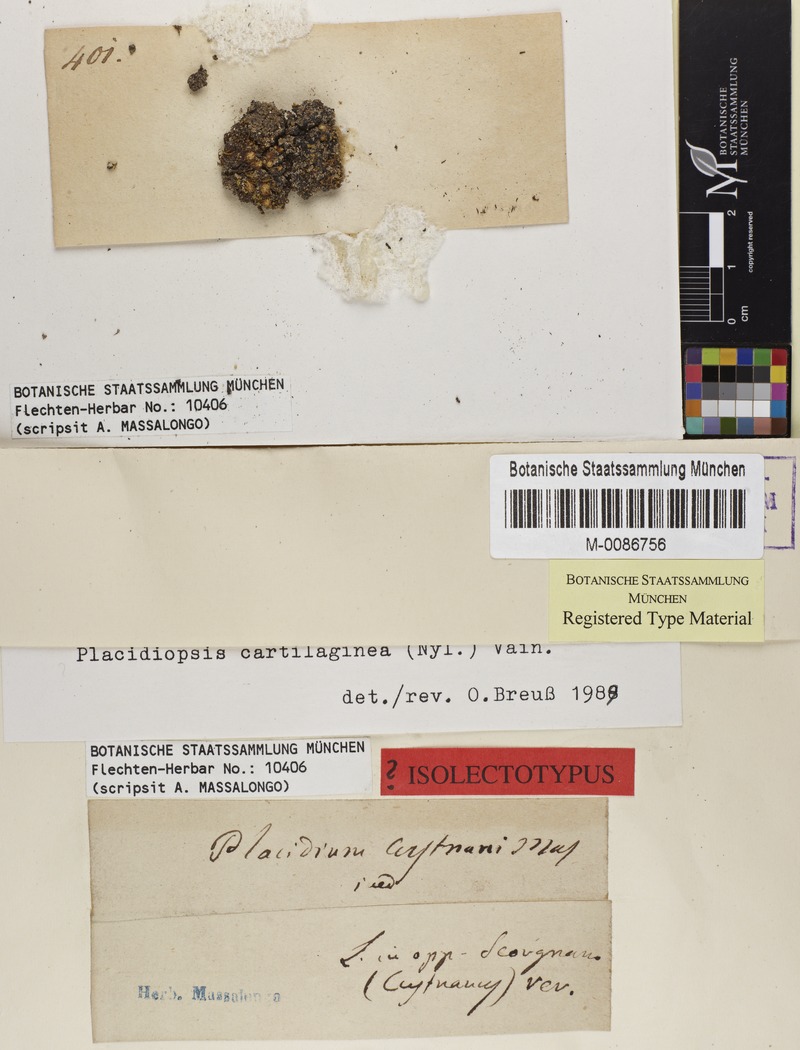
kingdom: Fungi
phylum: Ascomycota
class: Eurotiomycetes
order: Verrucariales
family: Verrucariaceae
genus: Placidiopsis
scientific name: Placidiopsis custnani
